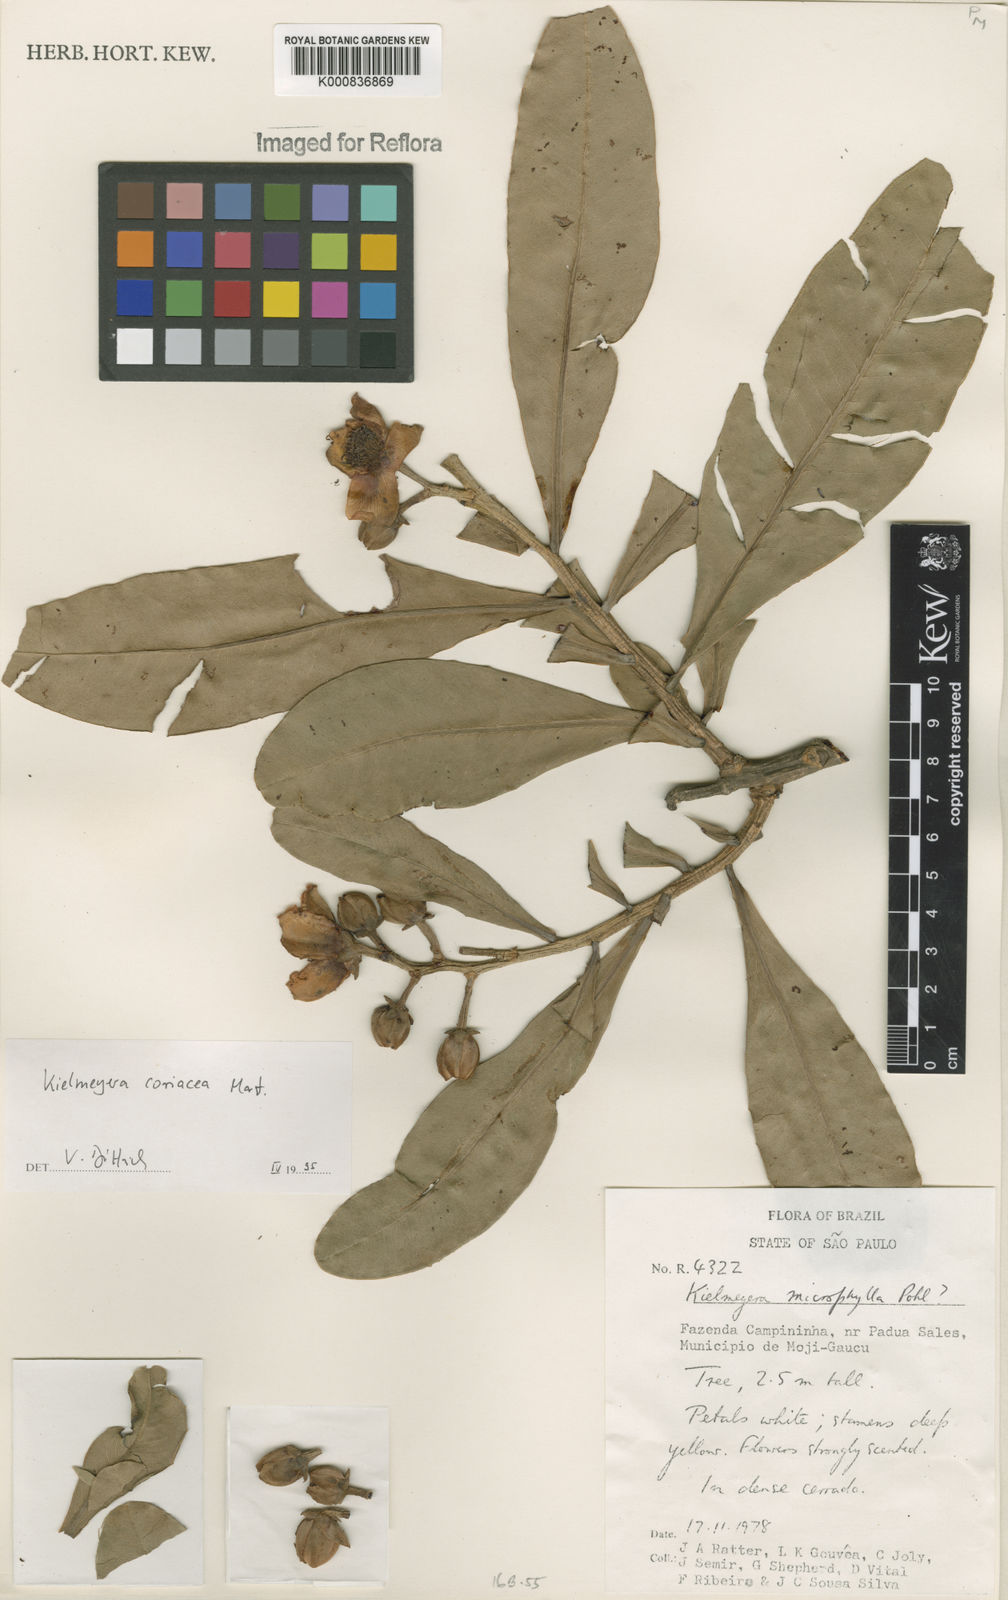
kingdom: Plantae
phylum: Tracheophyta
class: Magnoliopsida
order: Malpighiales
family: Calophyllaceae
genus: Kielmeyera
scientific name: Kielmeyera coriacea
